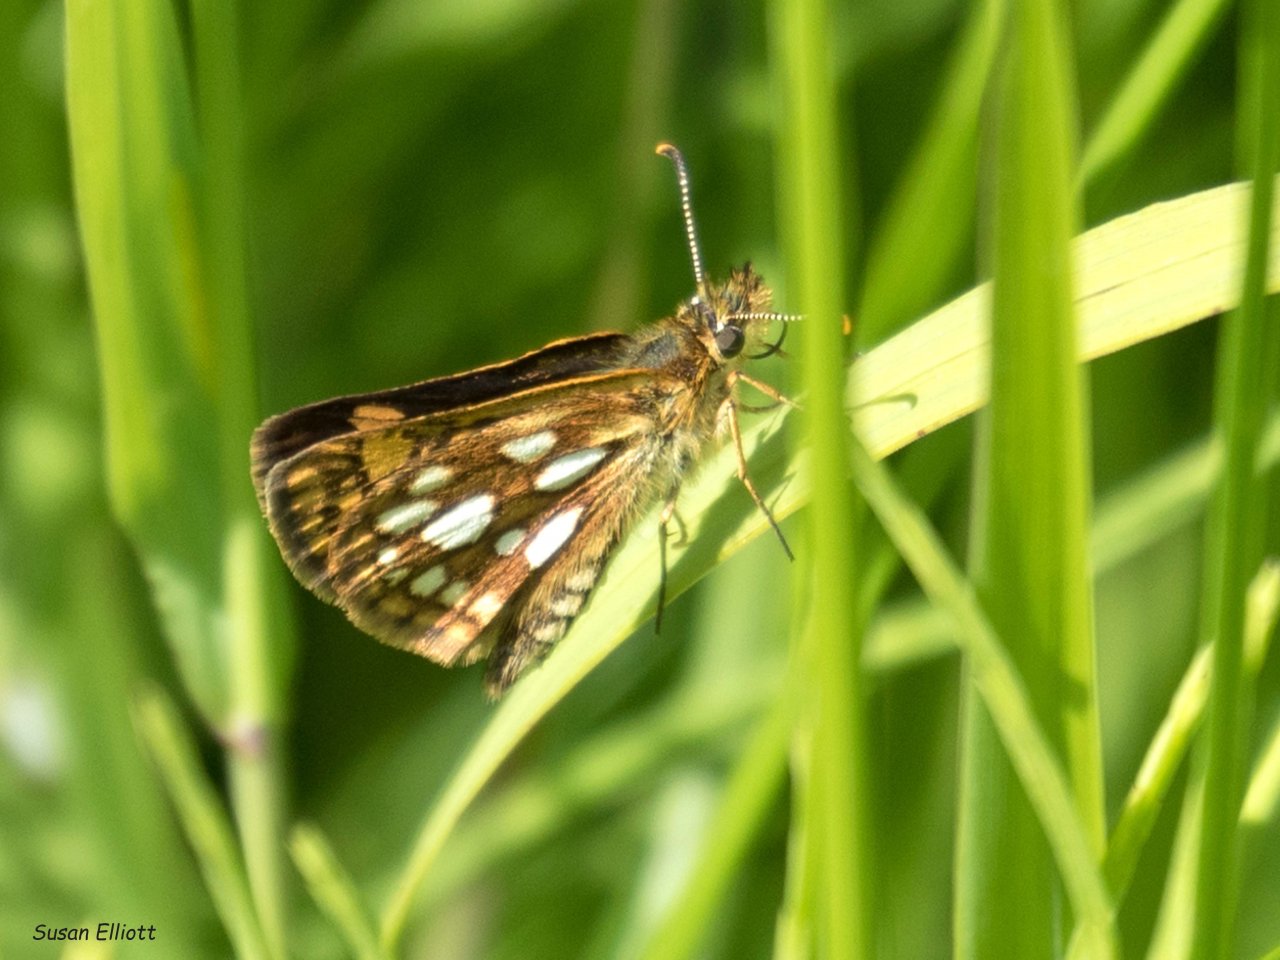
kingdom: Animalia
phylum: Arthropoda
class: Insecta
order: Lepidoptera
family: Hesperiidae
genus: Carterocephalus
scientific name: Carterocephalus palaemon
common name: Chequered Skipper
